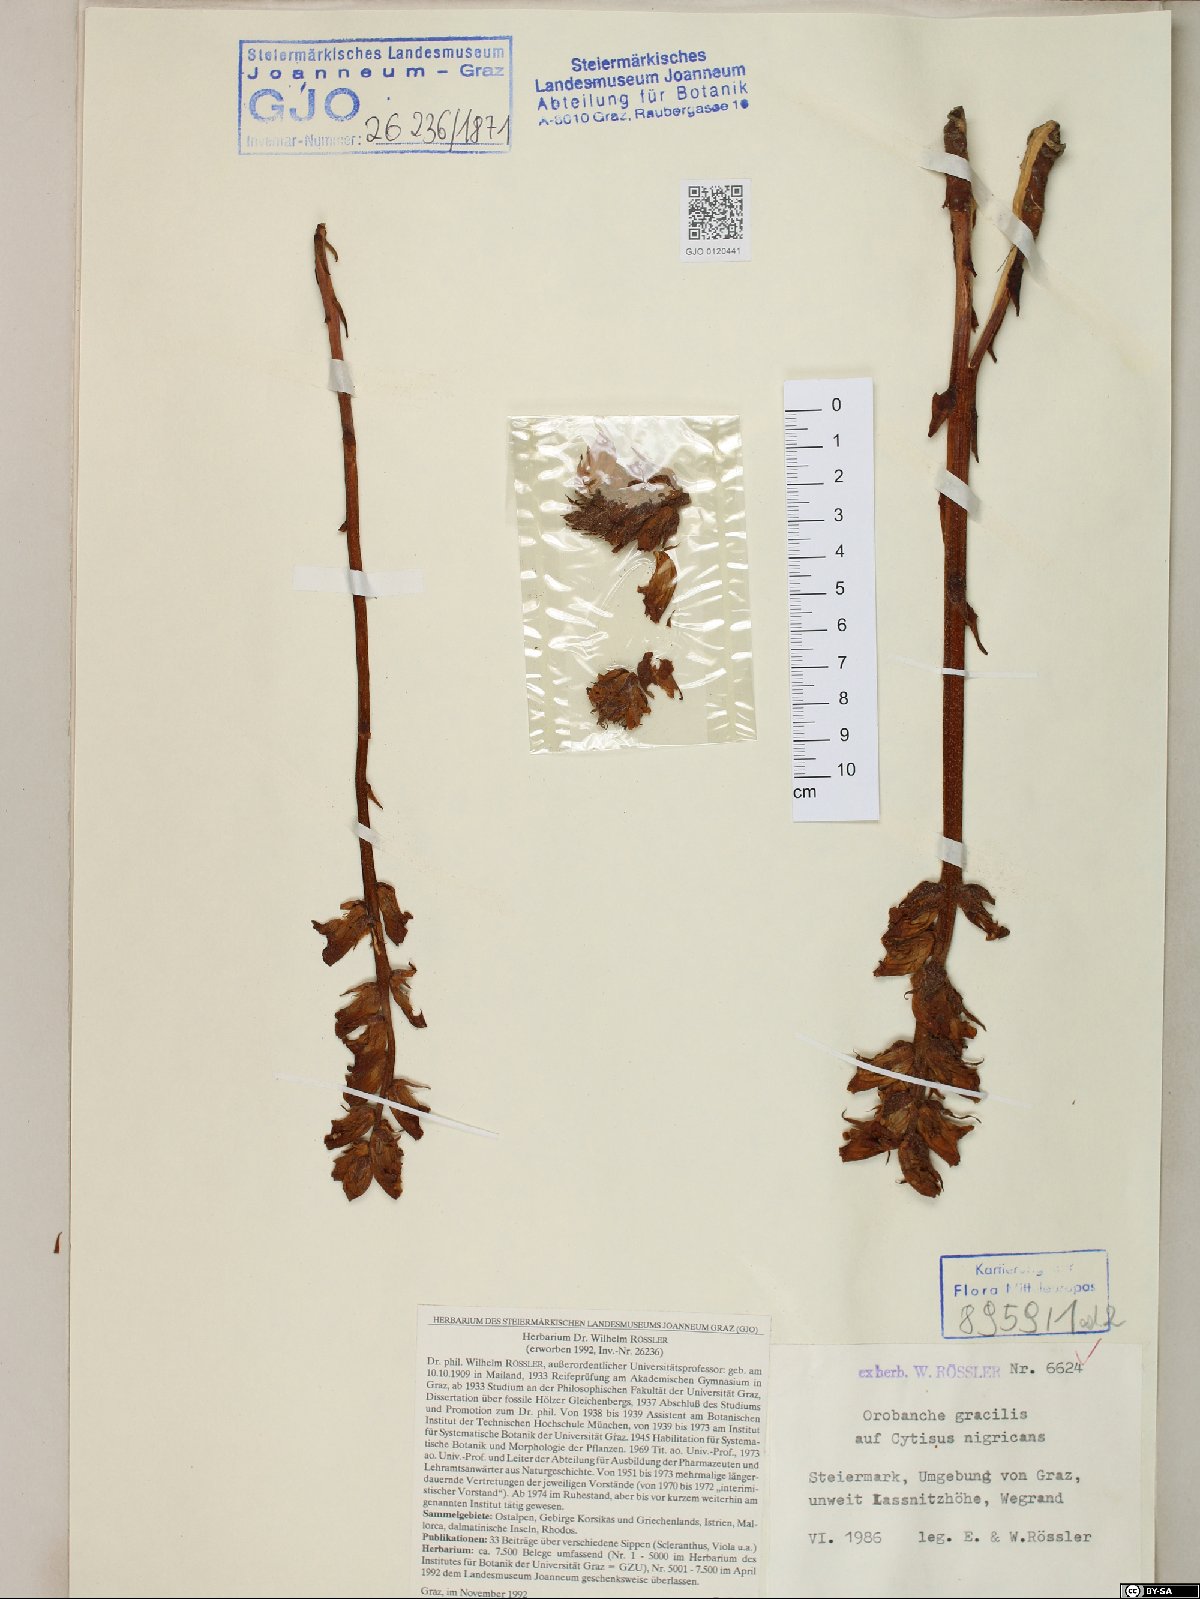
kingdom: Plantae
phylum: Tracheophyta
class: Magnoliopsida
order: Lamiales
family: Orobanchaceae
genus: Orobanche
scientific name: Orobanche gracilis
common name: Slender broomrape
